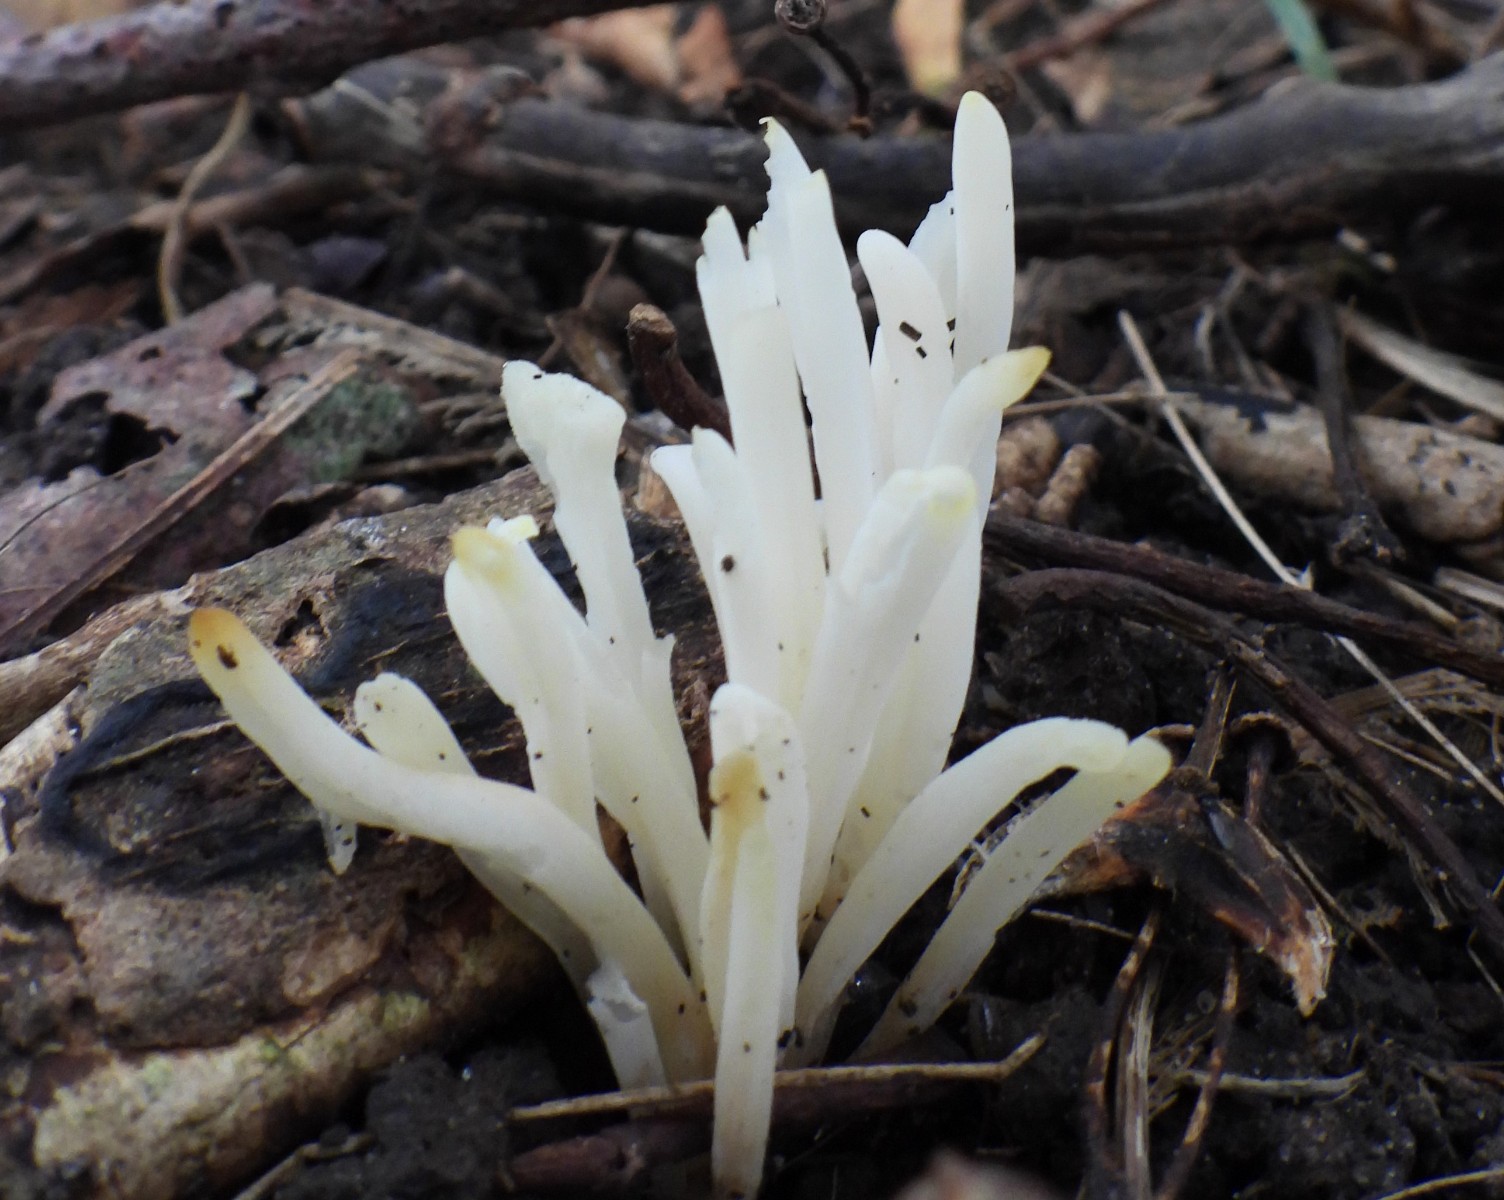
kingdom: Fungi
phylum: Basidiomycota
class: Agaricomycetes
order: Agaricales
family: Clavariaceae
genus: Clavaria
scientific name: Clavaria fragilis
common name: bugtet køllesvamp
